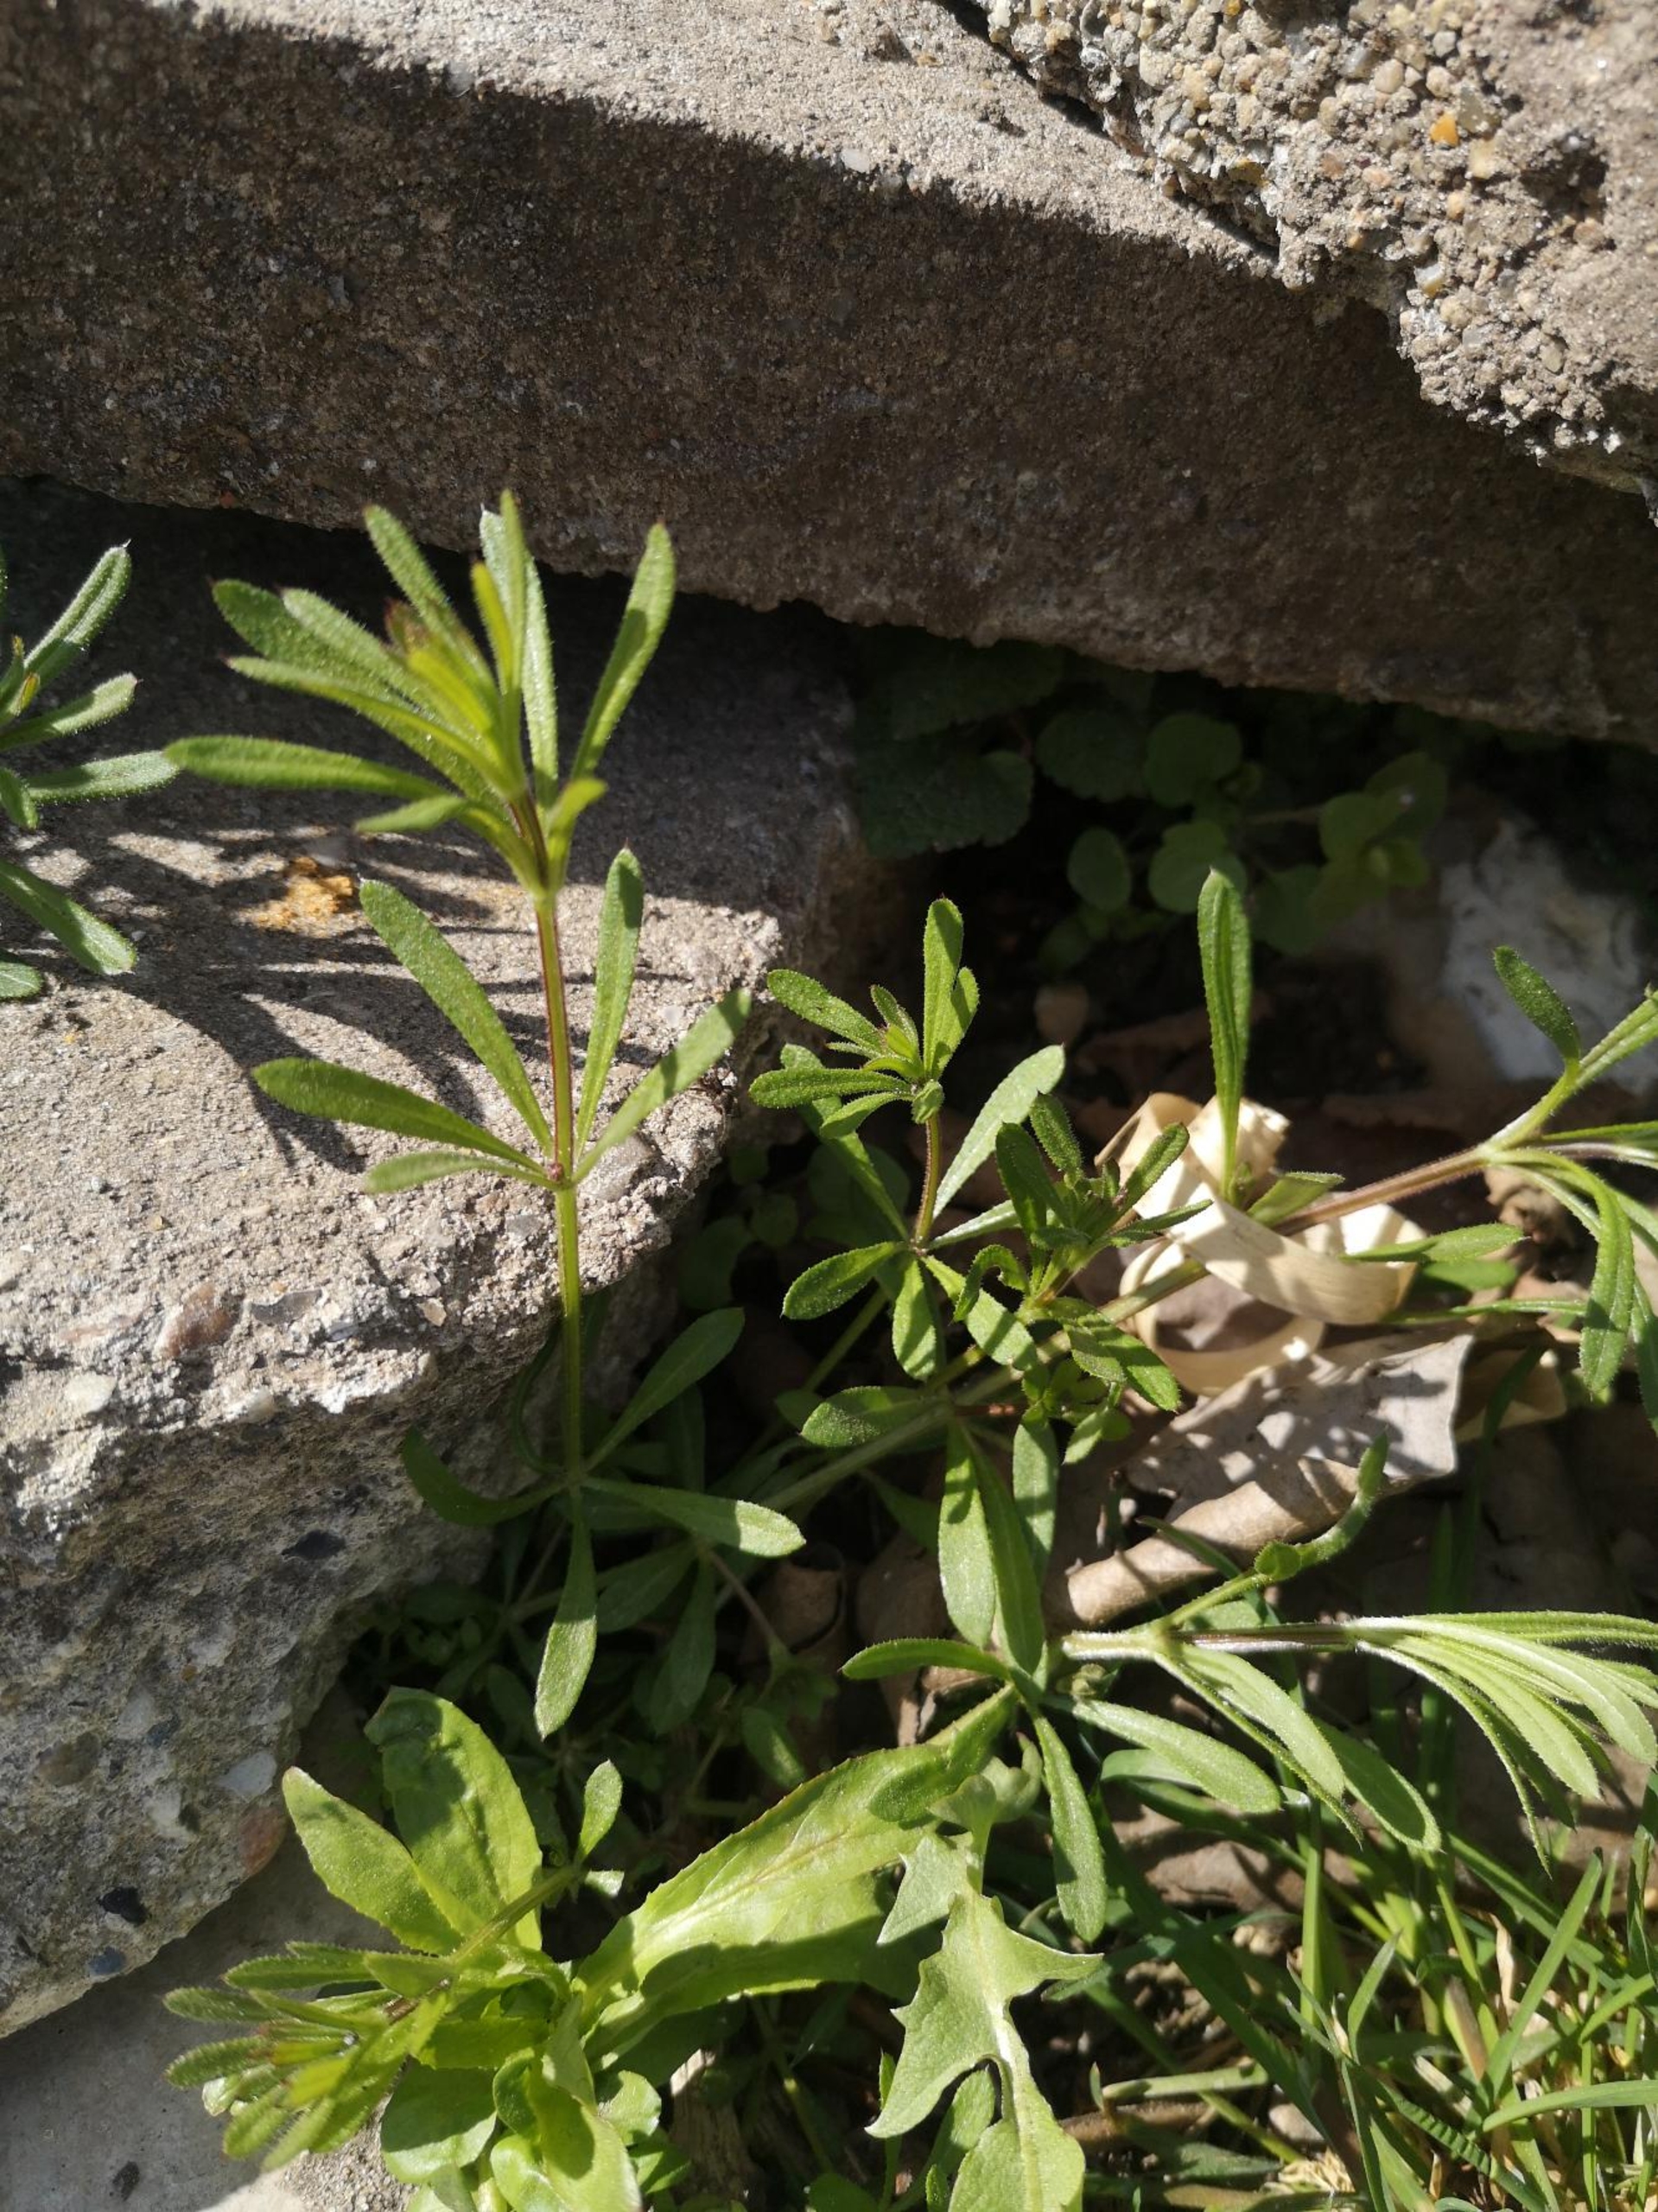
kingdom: Plantae
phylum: Tracheophyta
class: Magnoliopsida
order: Gentianales
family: Rubiaceae
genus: Galium
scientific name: Galium aparine
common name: Burre-snerre
